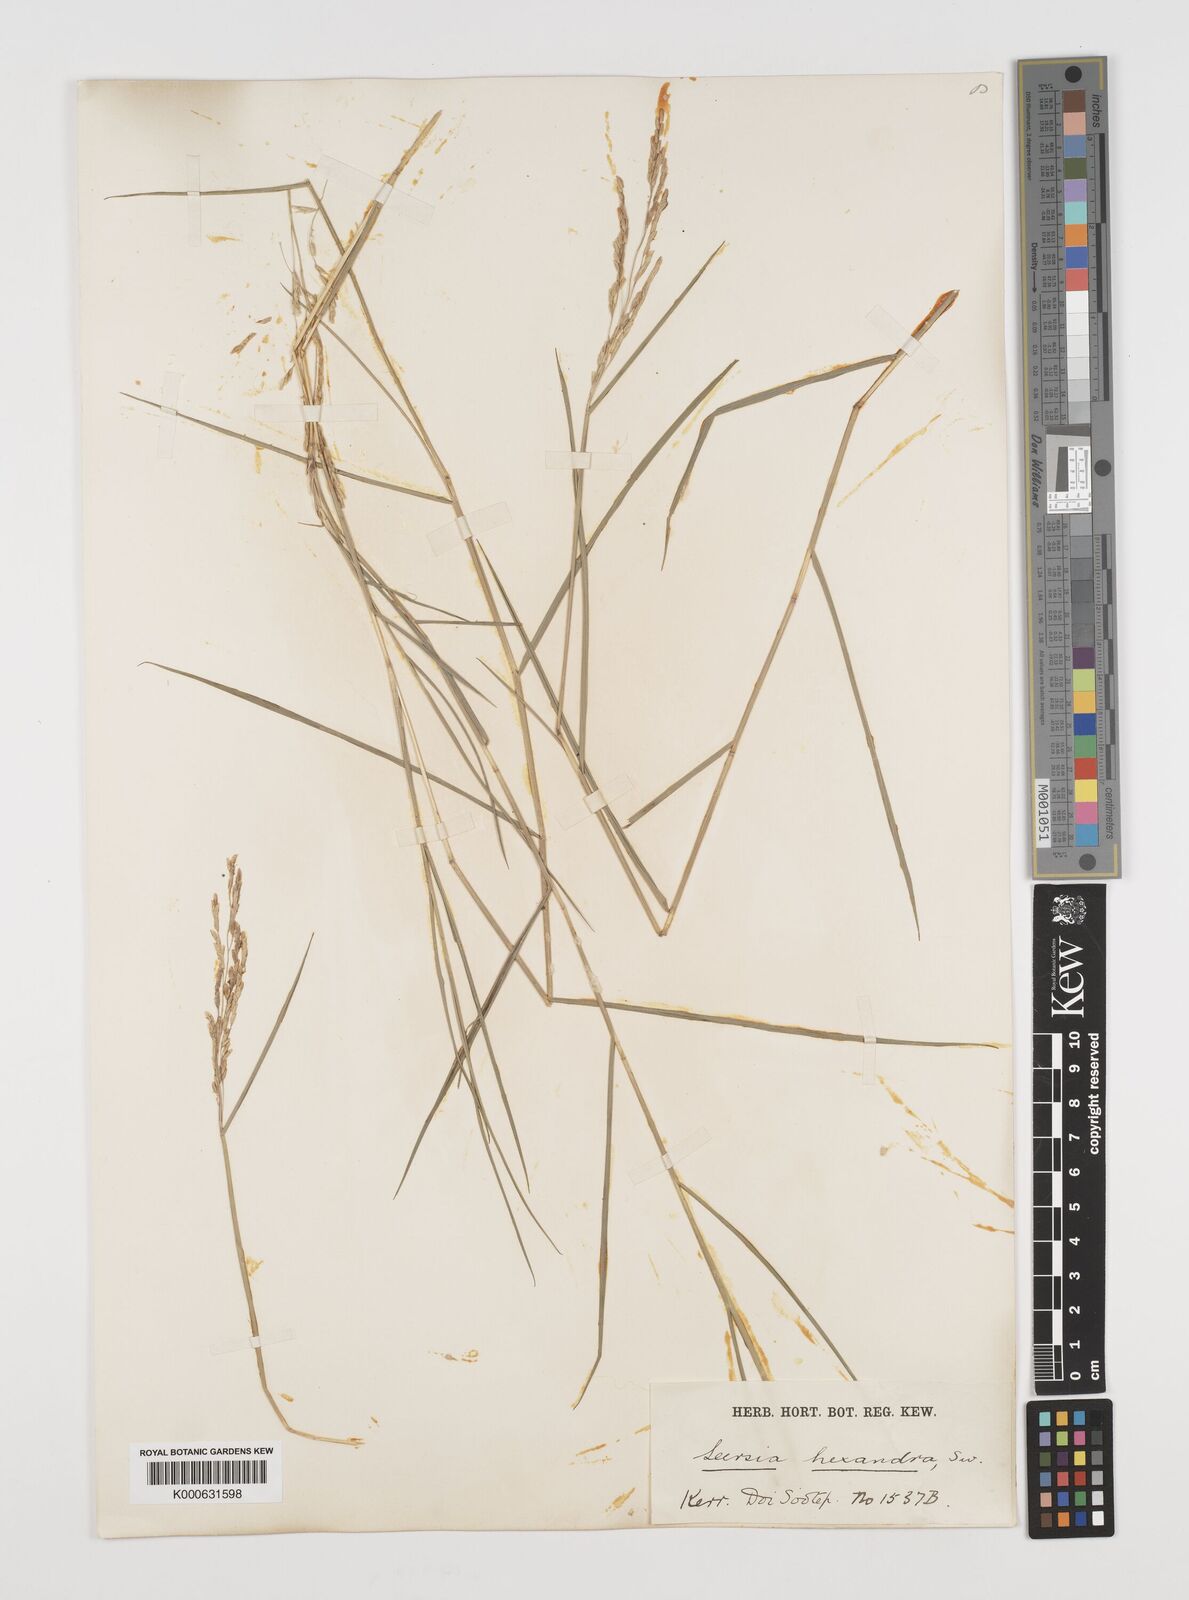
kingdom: Plantae
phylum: Tracheophyta
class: Liliopsida
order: Poales
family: Poaceae
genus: Leersia
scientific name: Leersia hexandra
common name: Southern cut grass
